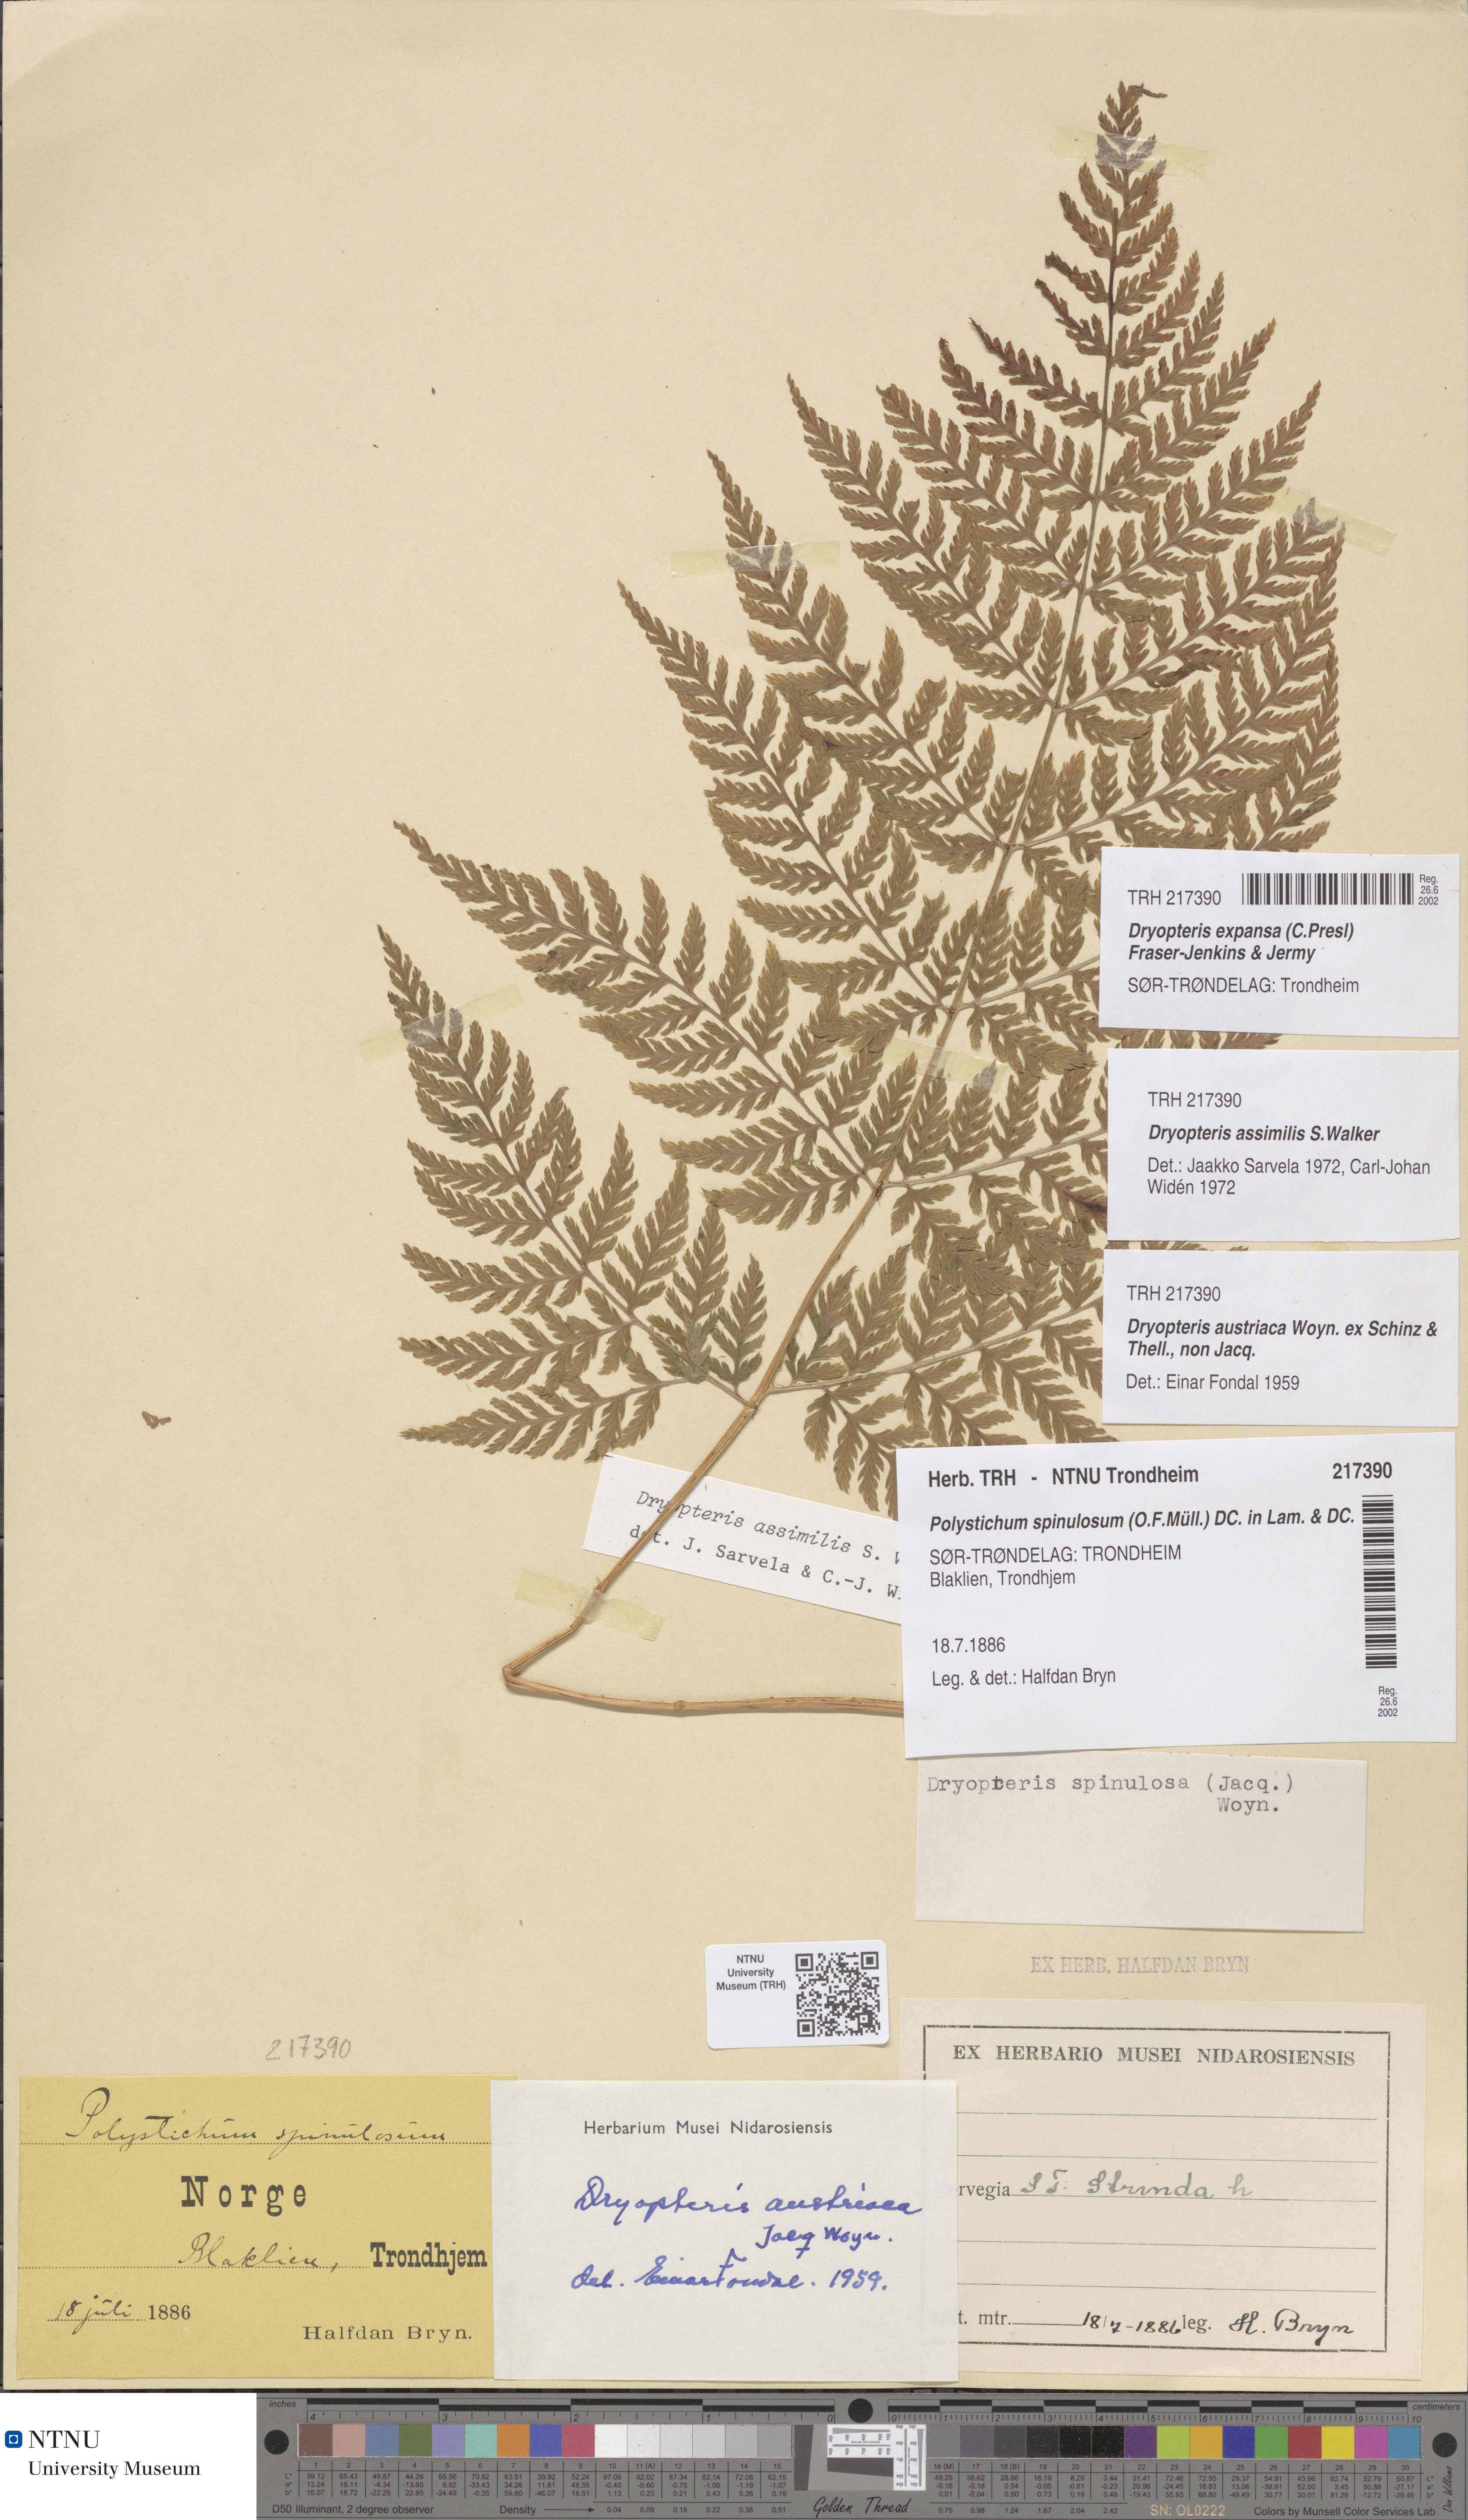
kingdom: Plantae
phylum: Tracheophyta
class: Polypodiopsida
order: Polypodiales
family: Dryopteridaceae
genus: Dryopteris
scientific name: Dryopteris expansa
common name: Northern buckler fern
